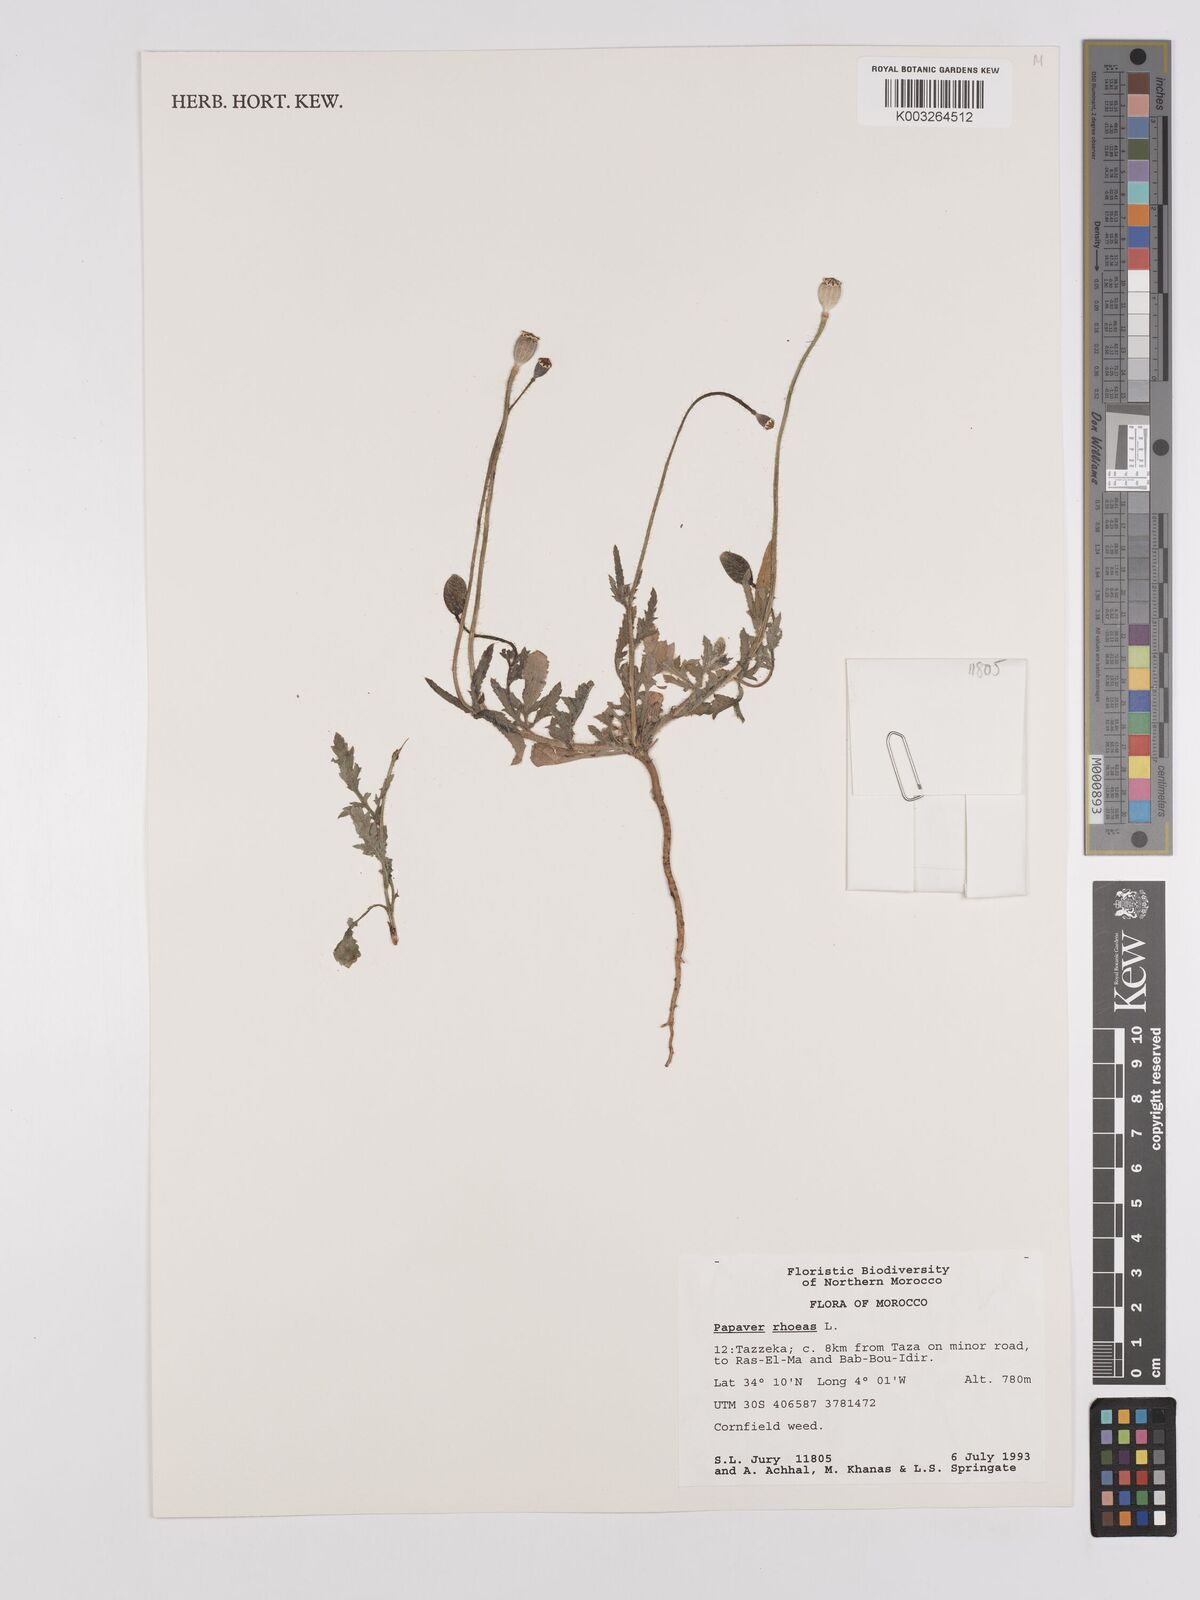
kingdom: Plantae
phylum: Tracheophyta
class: Magnoliopsida
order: Ranunculales
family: Papaveraceae
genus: Papaver
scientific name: Papaver rhoeas
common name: Corn poppy
